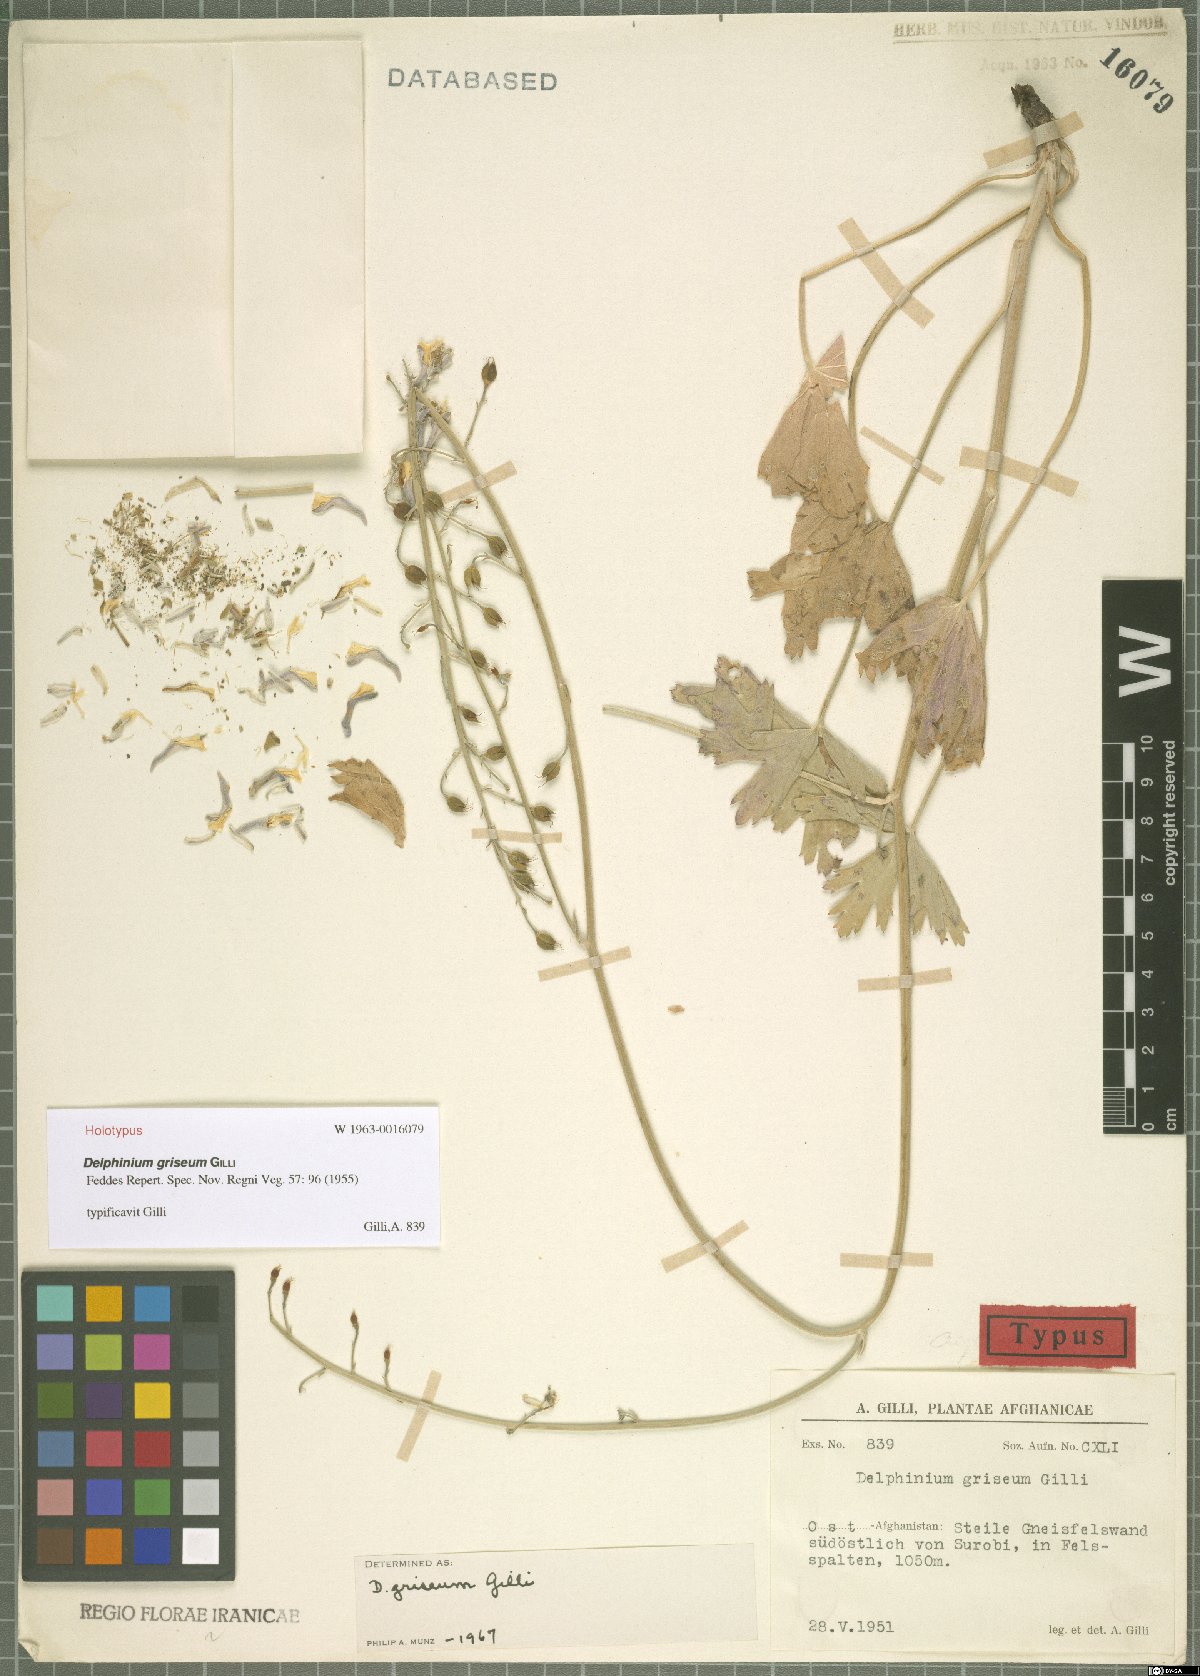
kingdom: Plantae
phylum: Tracheophyta
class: Magnoliopsida
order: Ranunculales
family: Ranunculaceae
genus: Delphinium
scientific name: Delphinium griseum
